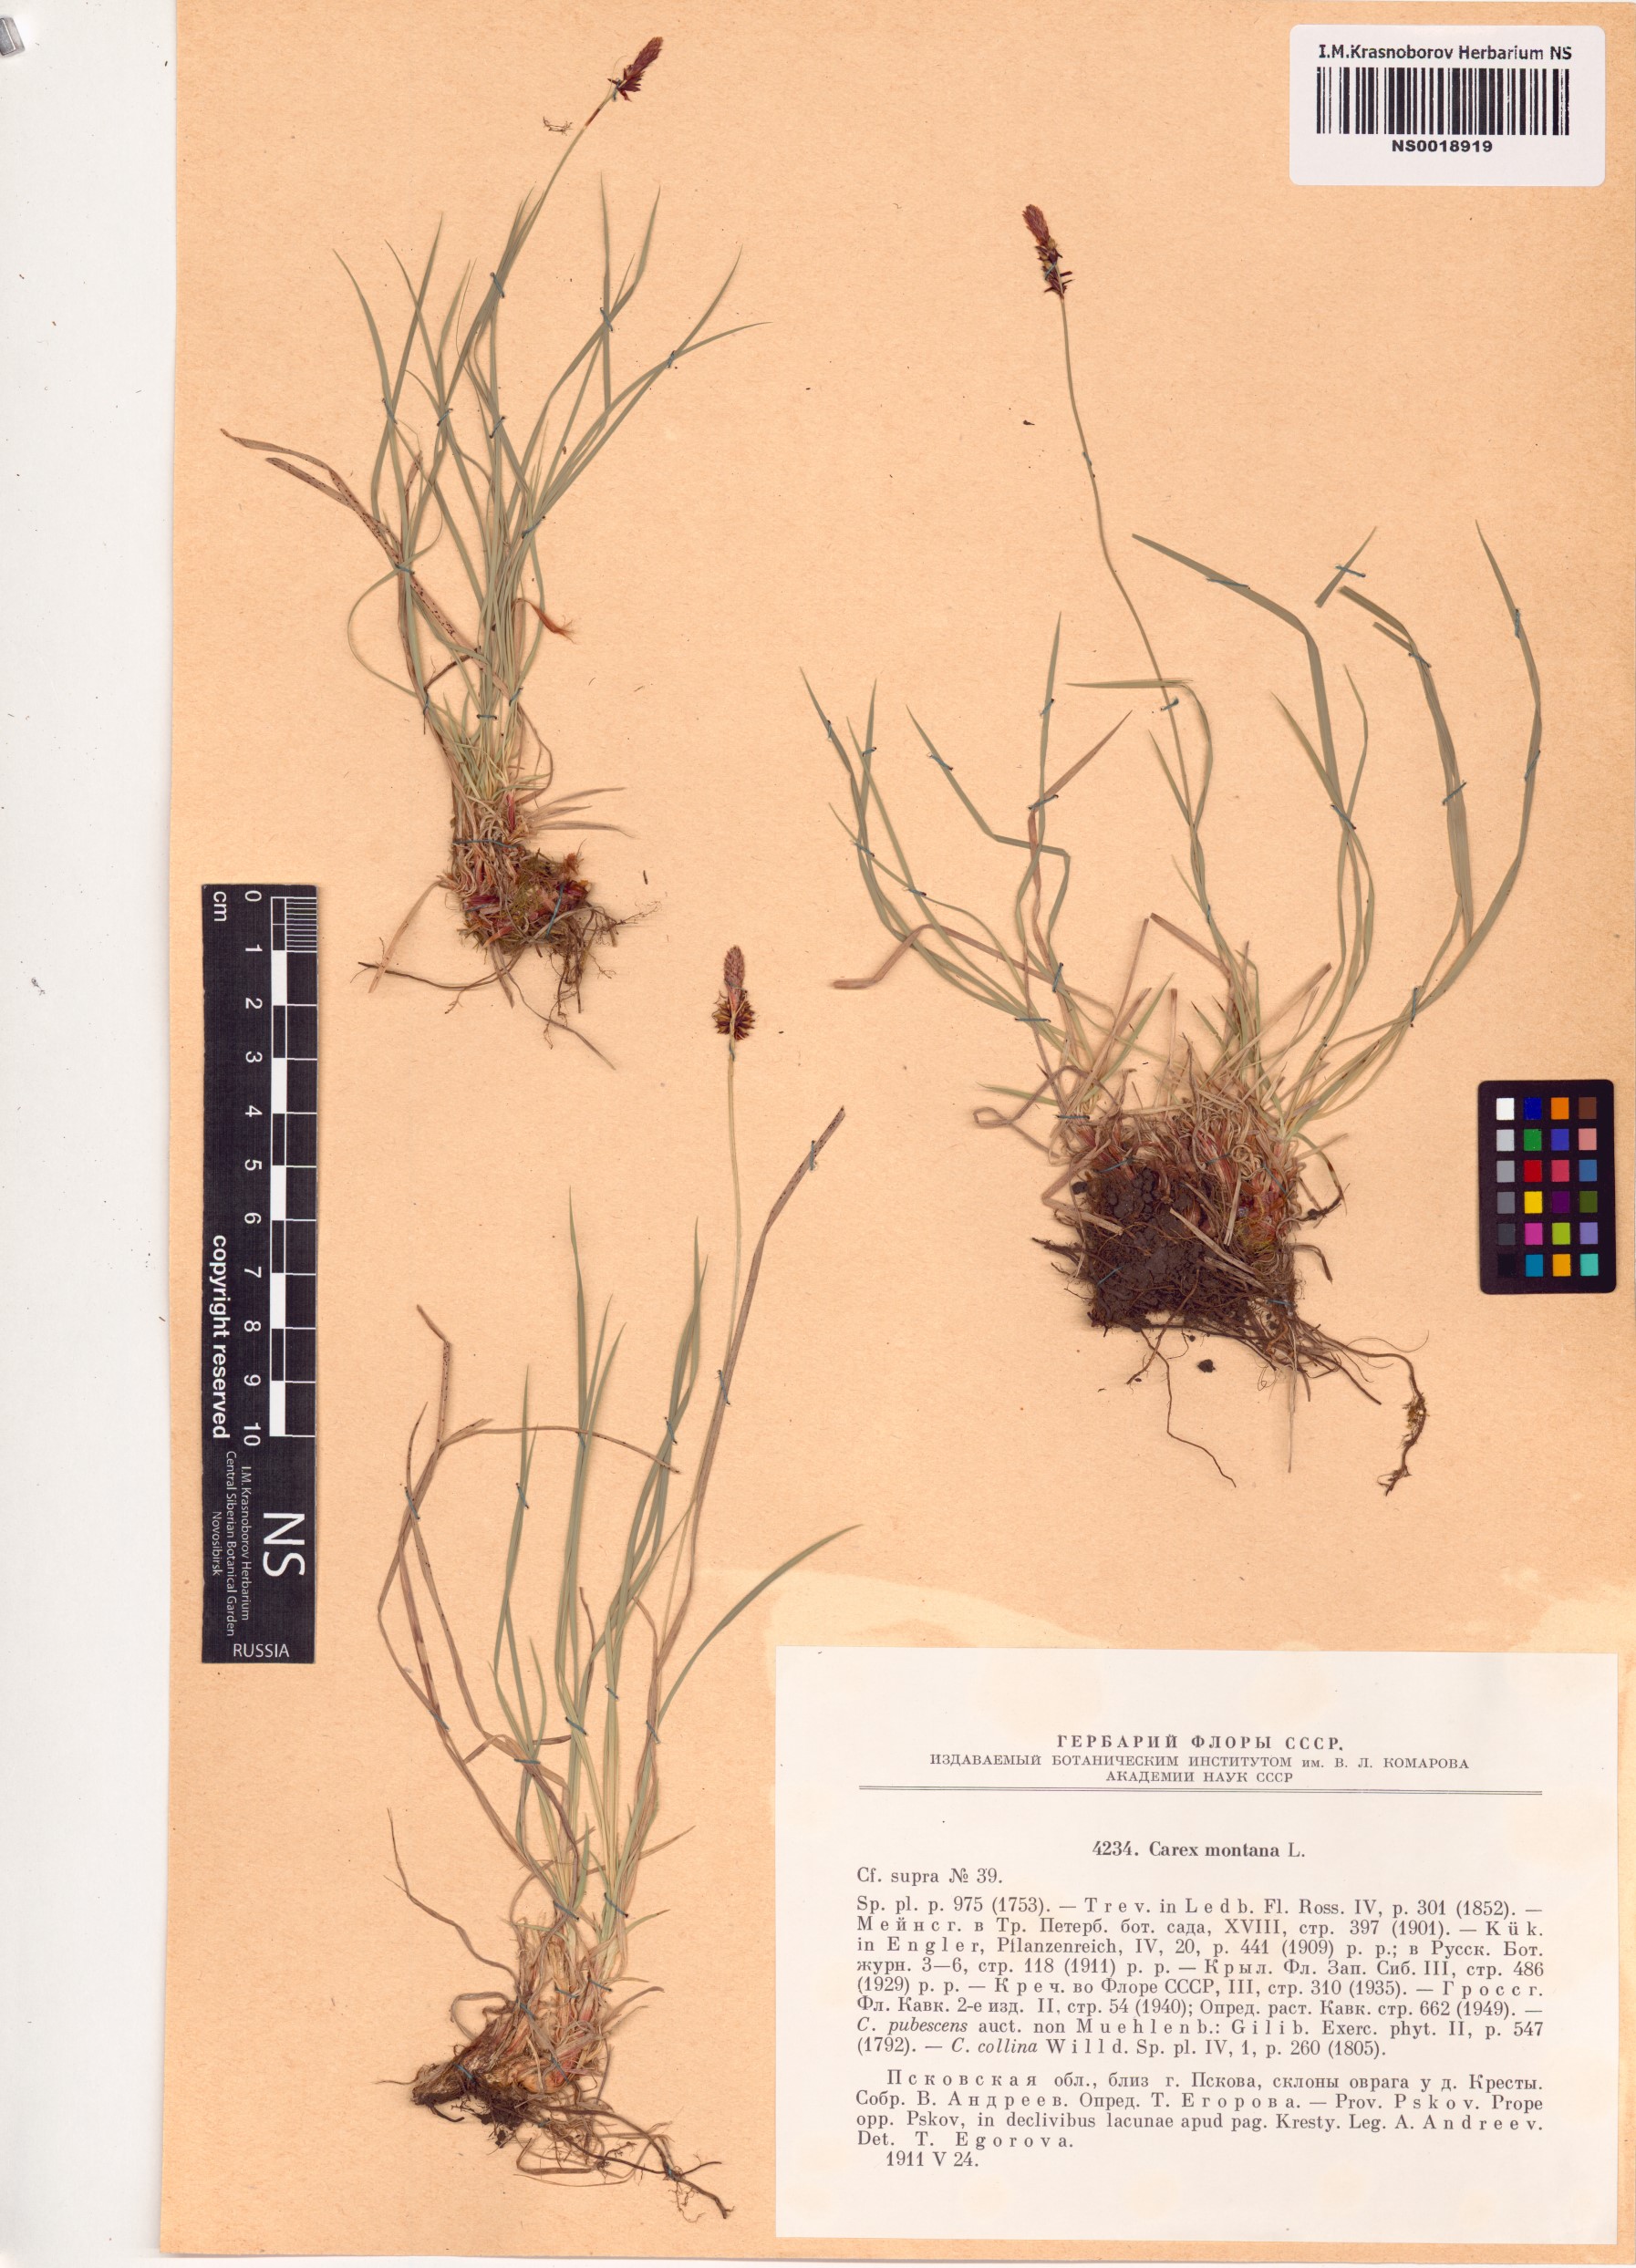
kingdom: Plantae
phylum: Tracheophyta
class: Liliopsida
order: Poales
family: Cyperaceae
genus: Carex
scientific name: Carex montana
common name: Soft-leaved sedge
